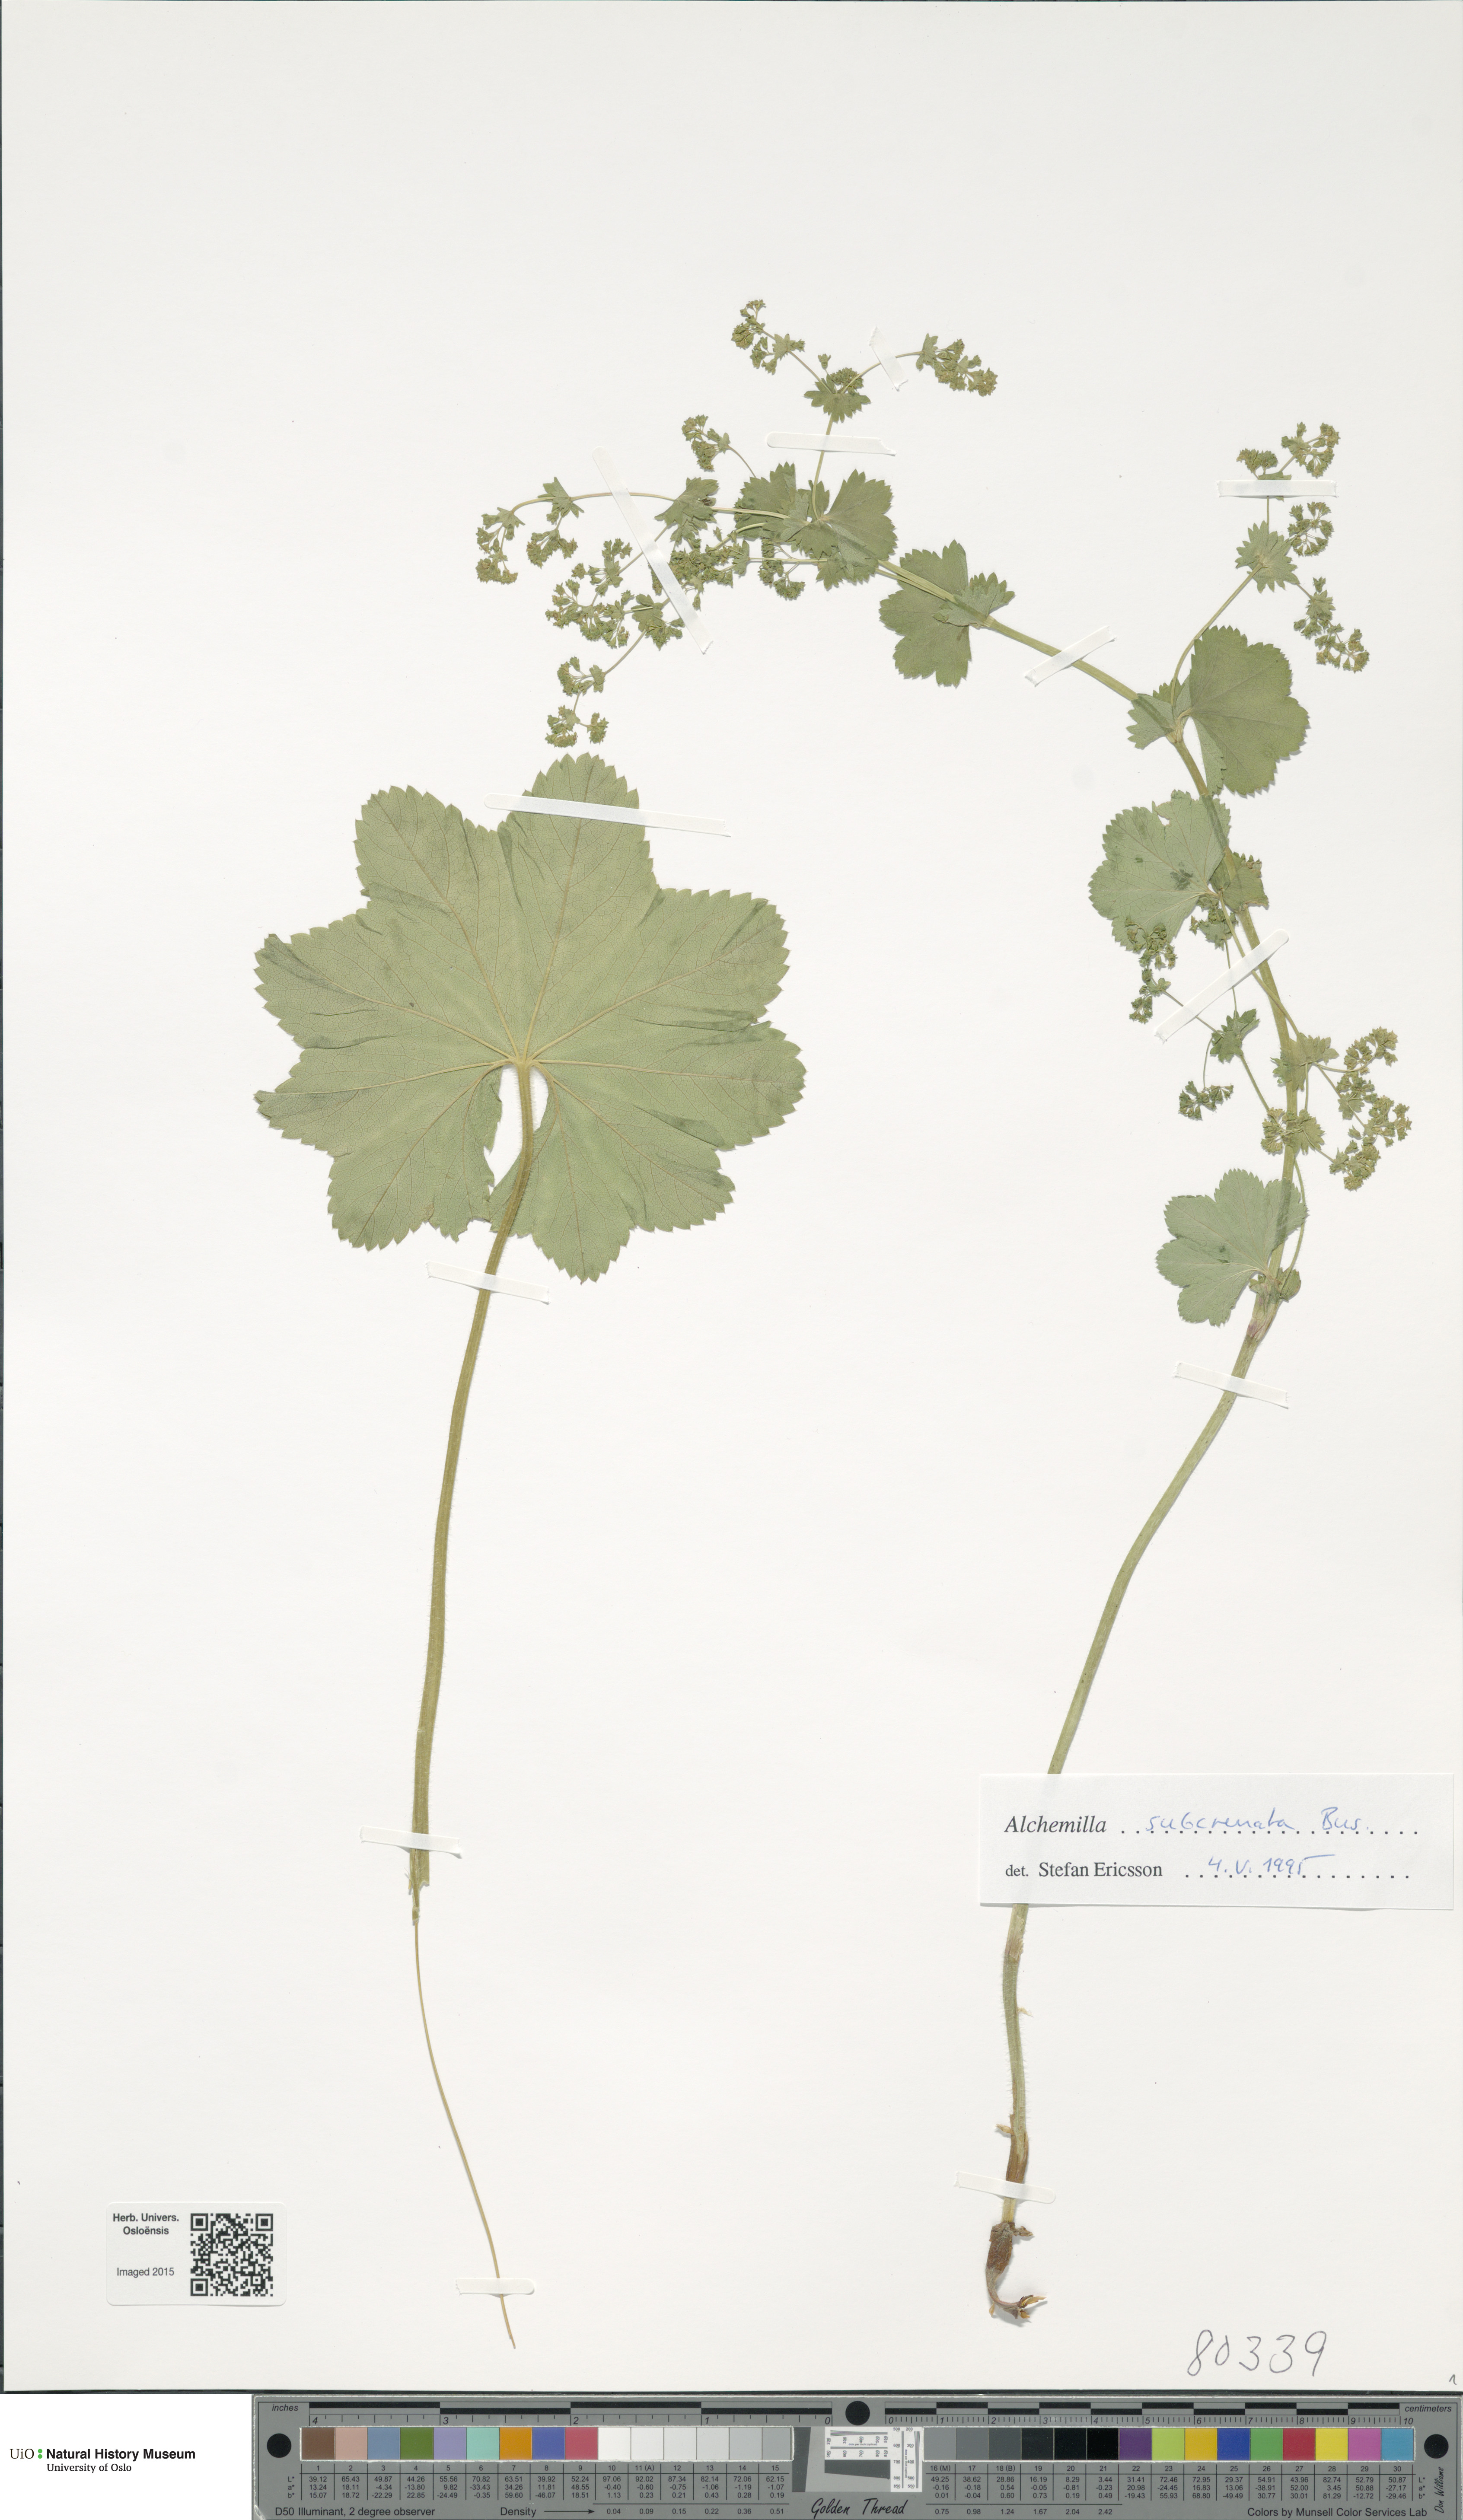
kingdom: Plantae
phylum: Tracheophyta
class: Magnoliopsida
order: Rosales
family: Rosaceae
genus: Alchemilla
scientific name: Alchemilla subcrenata
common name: Broadtooth lady's mantle
